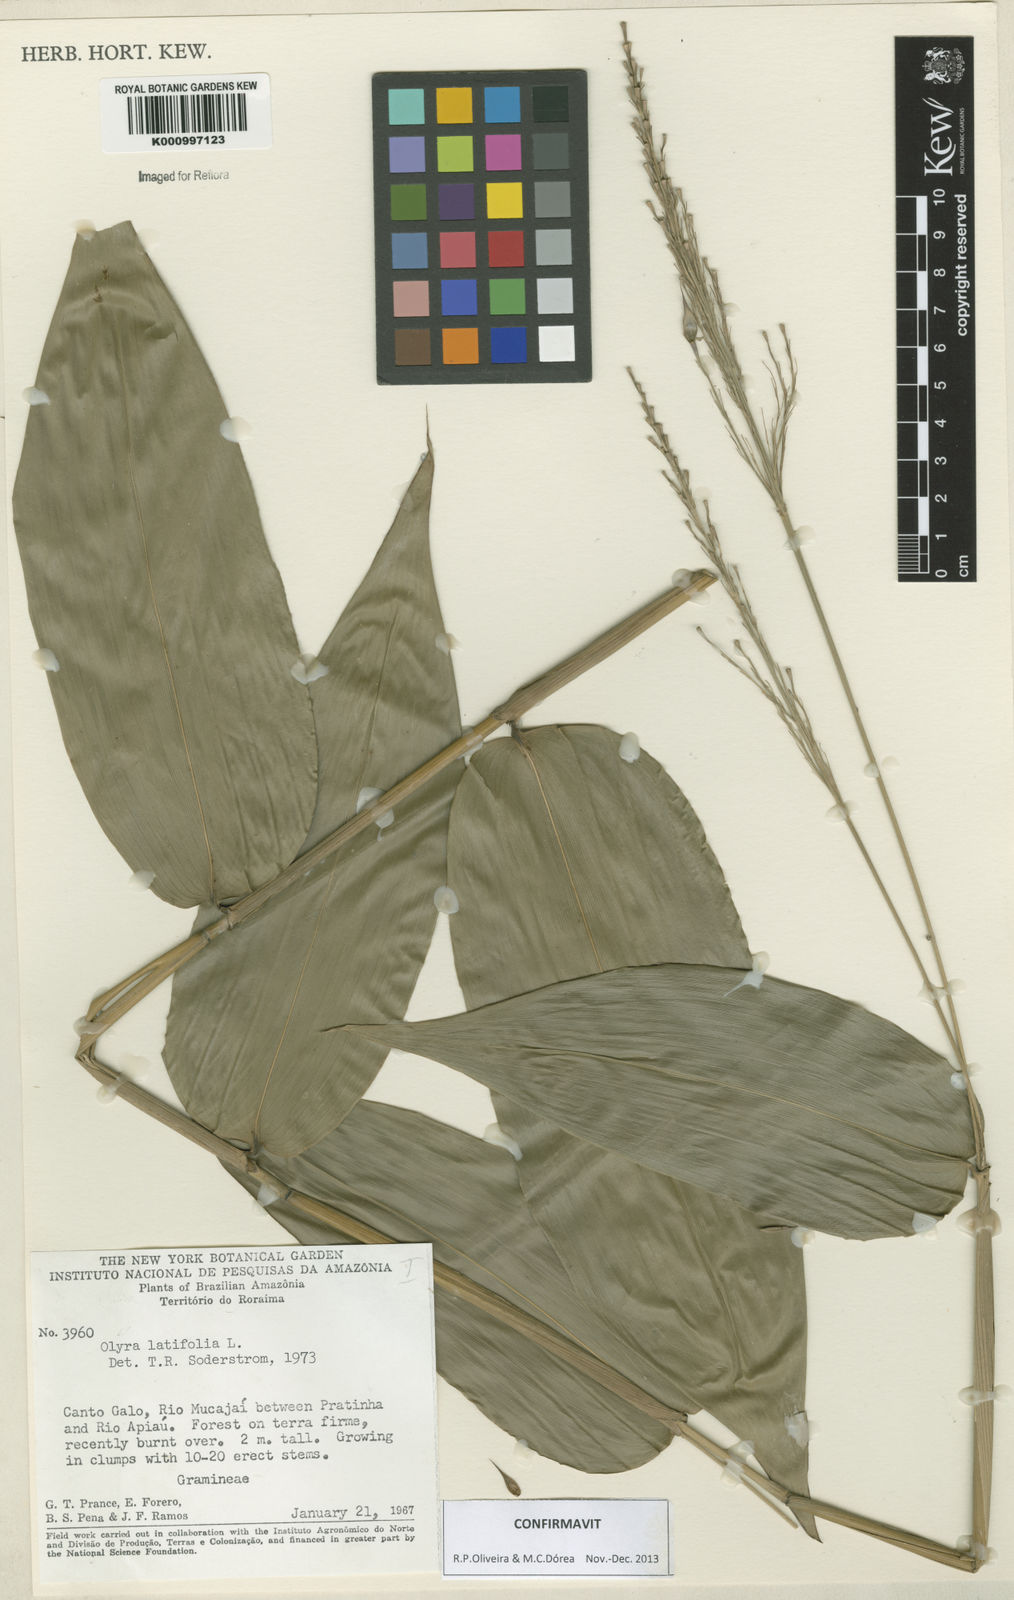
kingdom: Plantae
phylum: Tracheophyta
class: Liliopsida
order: Poales
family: Poaceae
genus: Olyra
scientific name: Olyra latifolia
